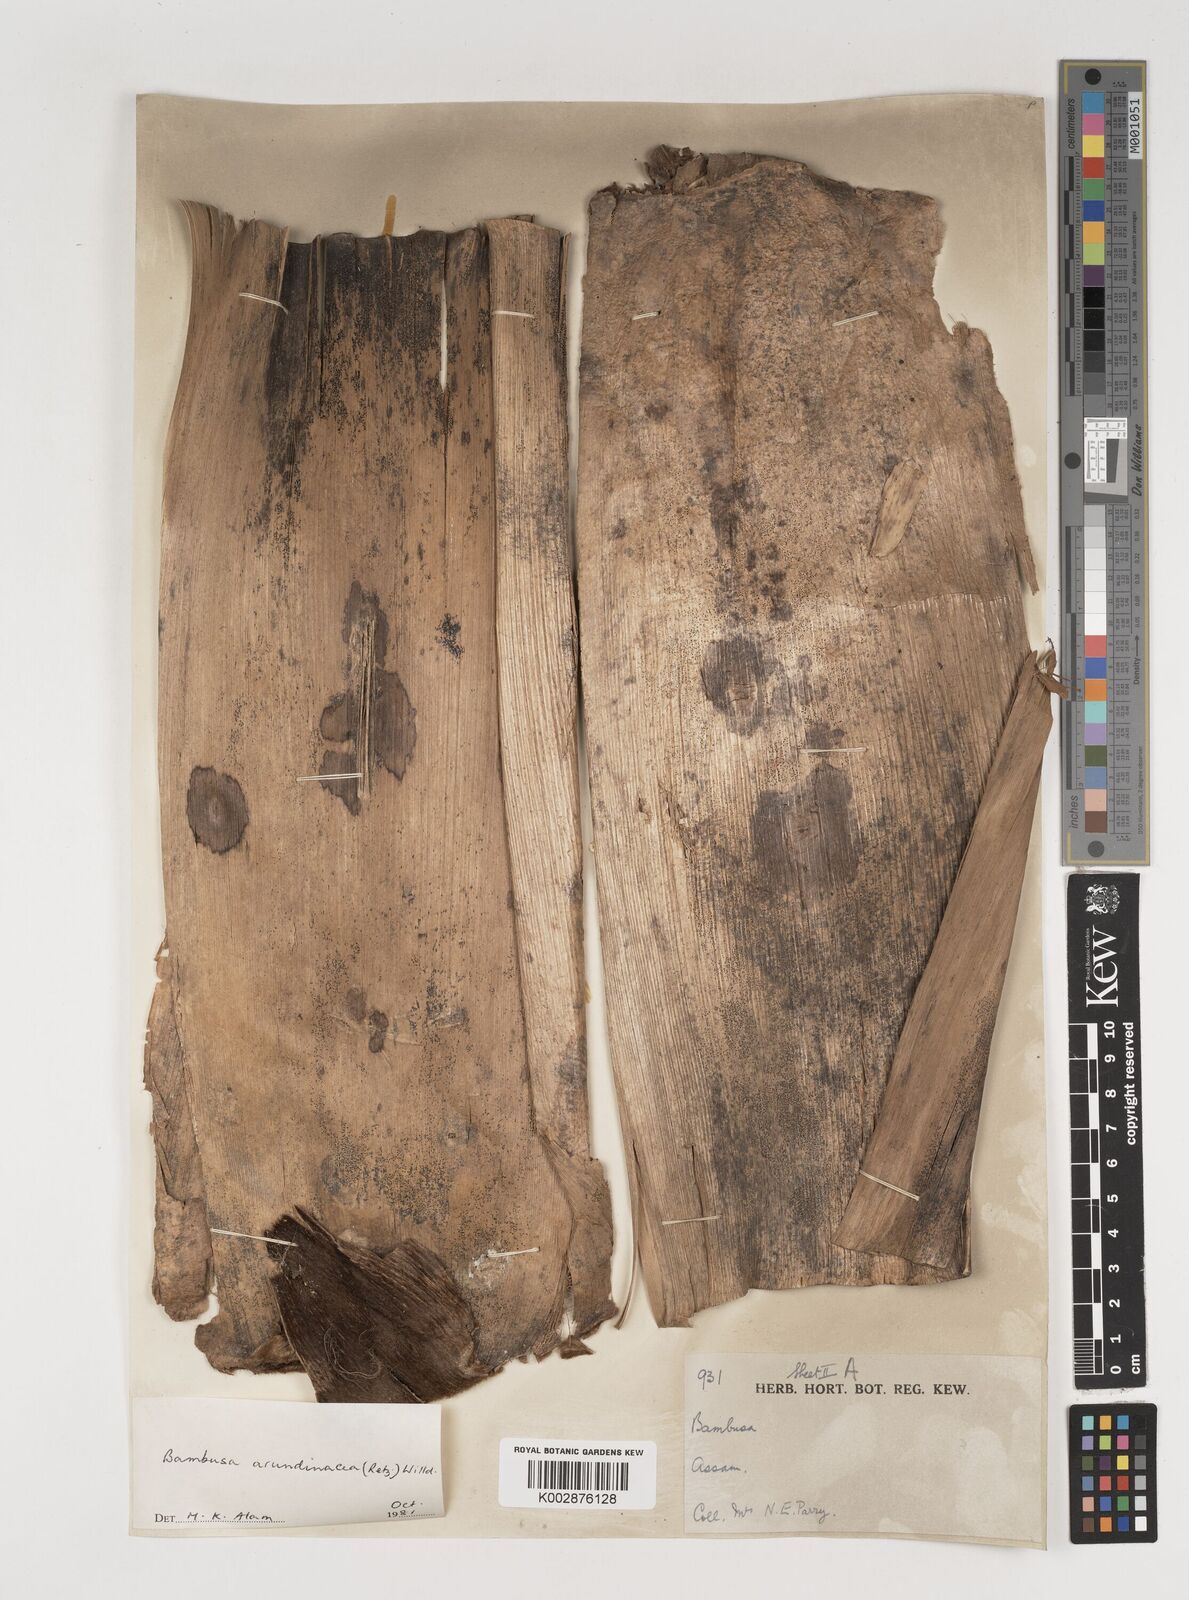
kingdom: Plantae
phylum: Tracheophyta
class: Liliopsida
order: Poales
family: Poaceae
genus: Bambusa
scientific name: Bambusa bambos
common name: Indian thorny bamboo
